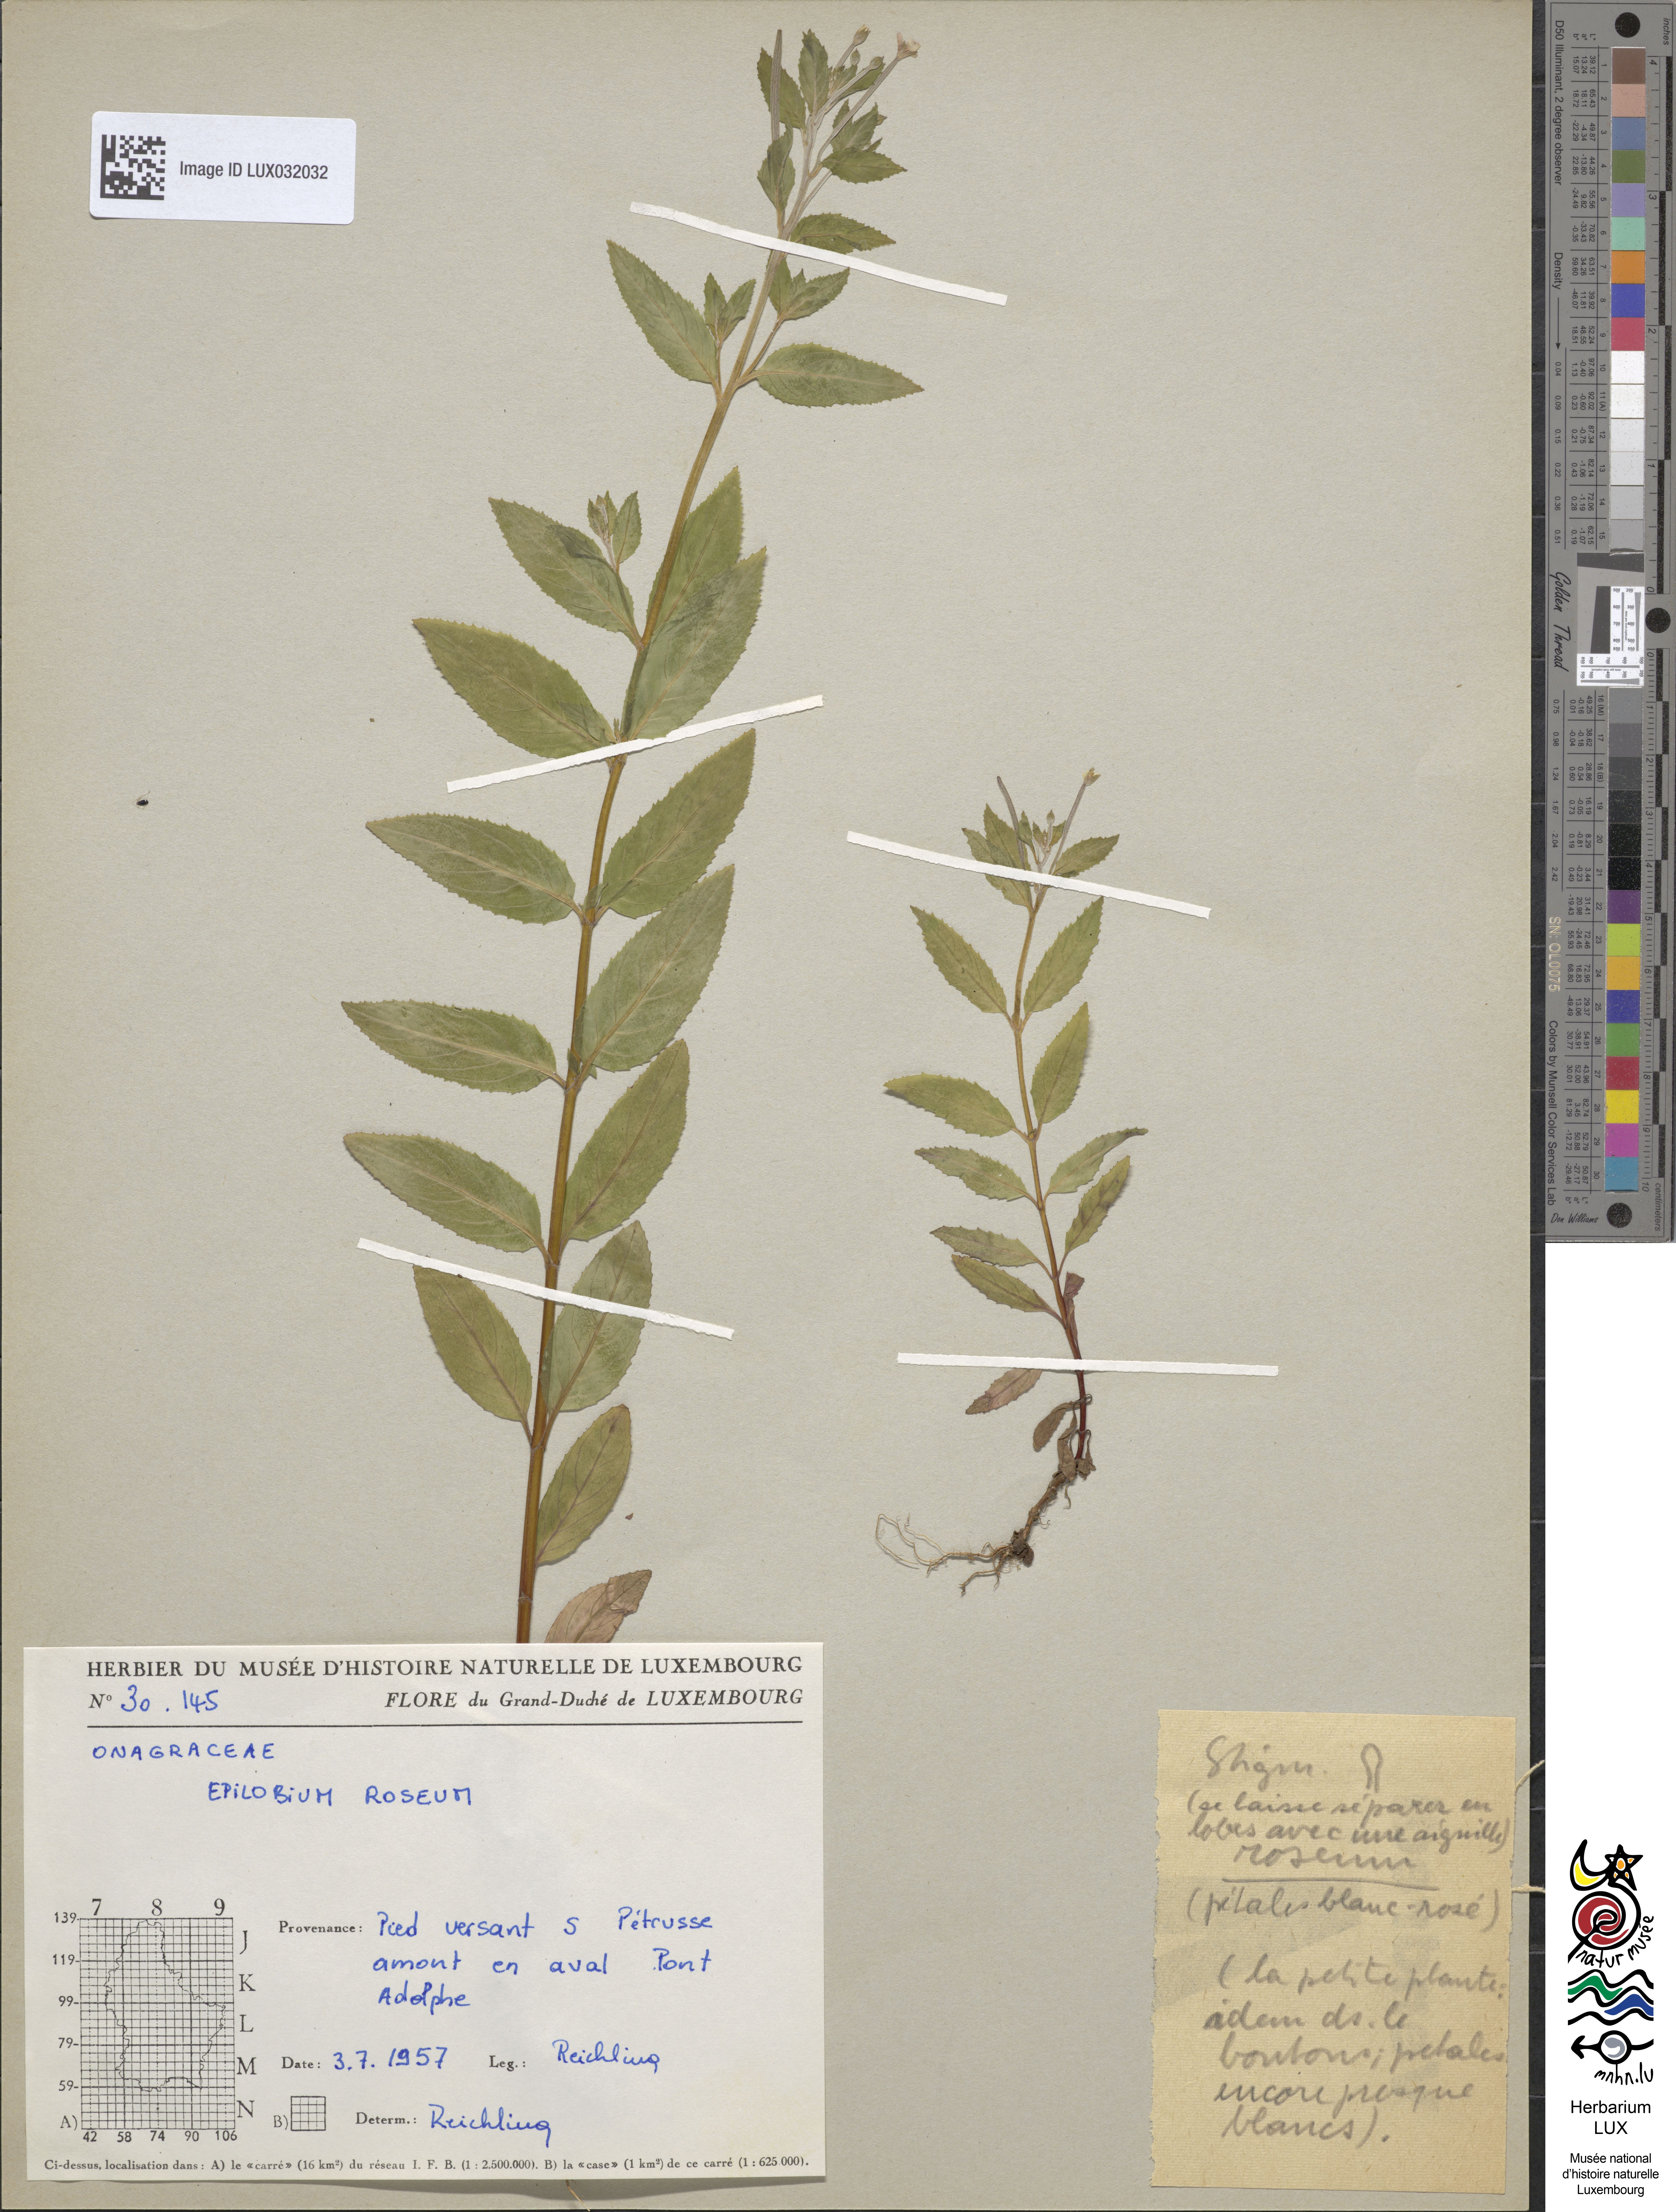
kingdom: Plantae
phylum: Tracheophyta
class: Magnoliopsida
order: Myrtales
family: Onagraceae
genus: Epilobium
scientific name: Epilobium roseum
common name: Pale willowherb
